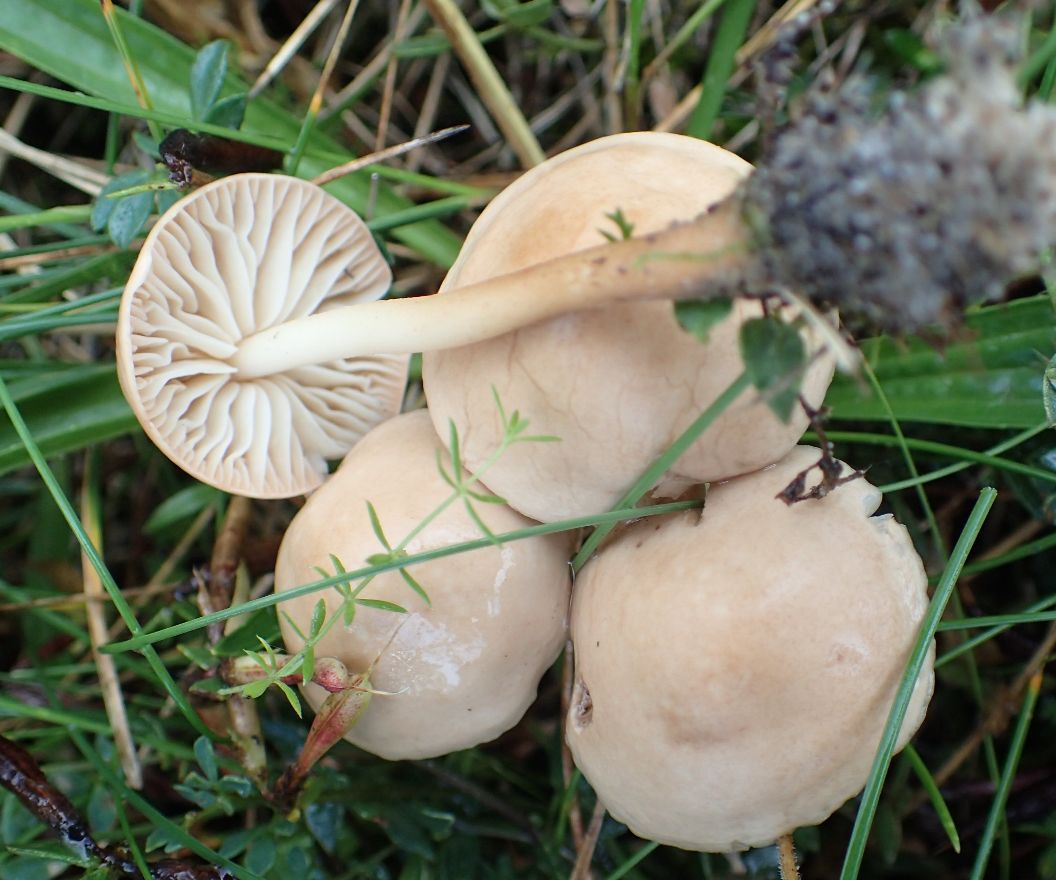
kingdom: Fungi
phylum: Basidiomycota
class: Agaricomycetes
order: Agaricales
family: Marasmiaceae
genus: Marasmius
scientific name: Marasmius oreades
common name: elledans-bruskhat
